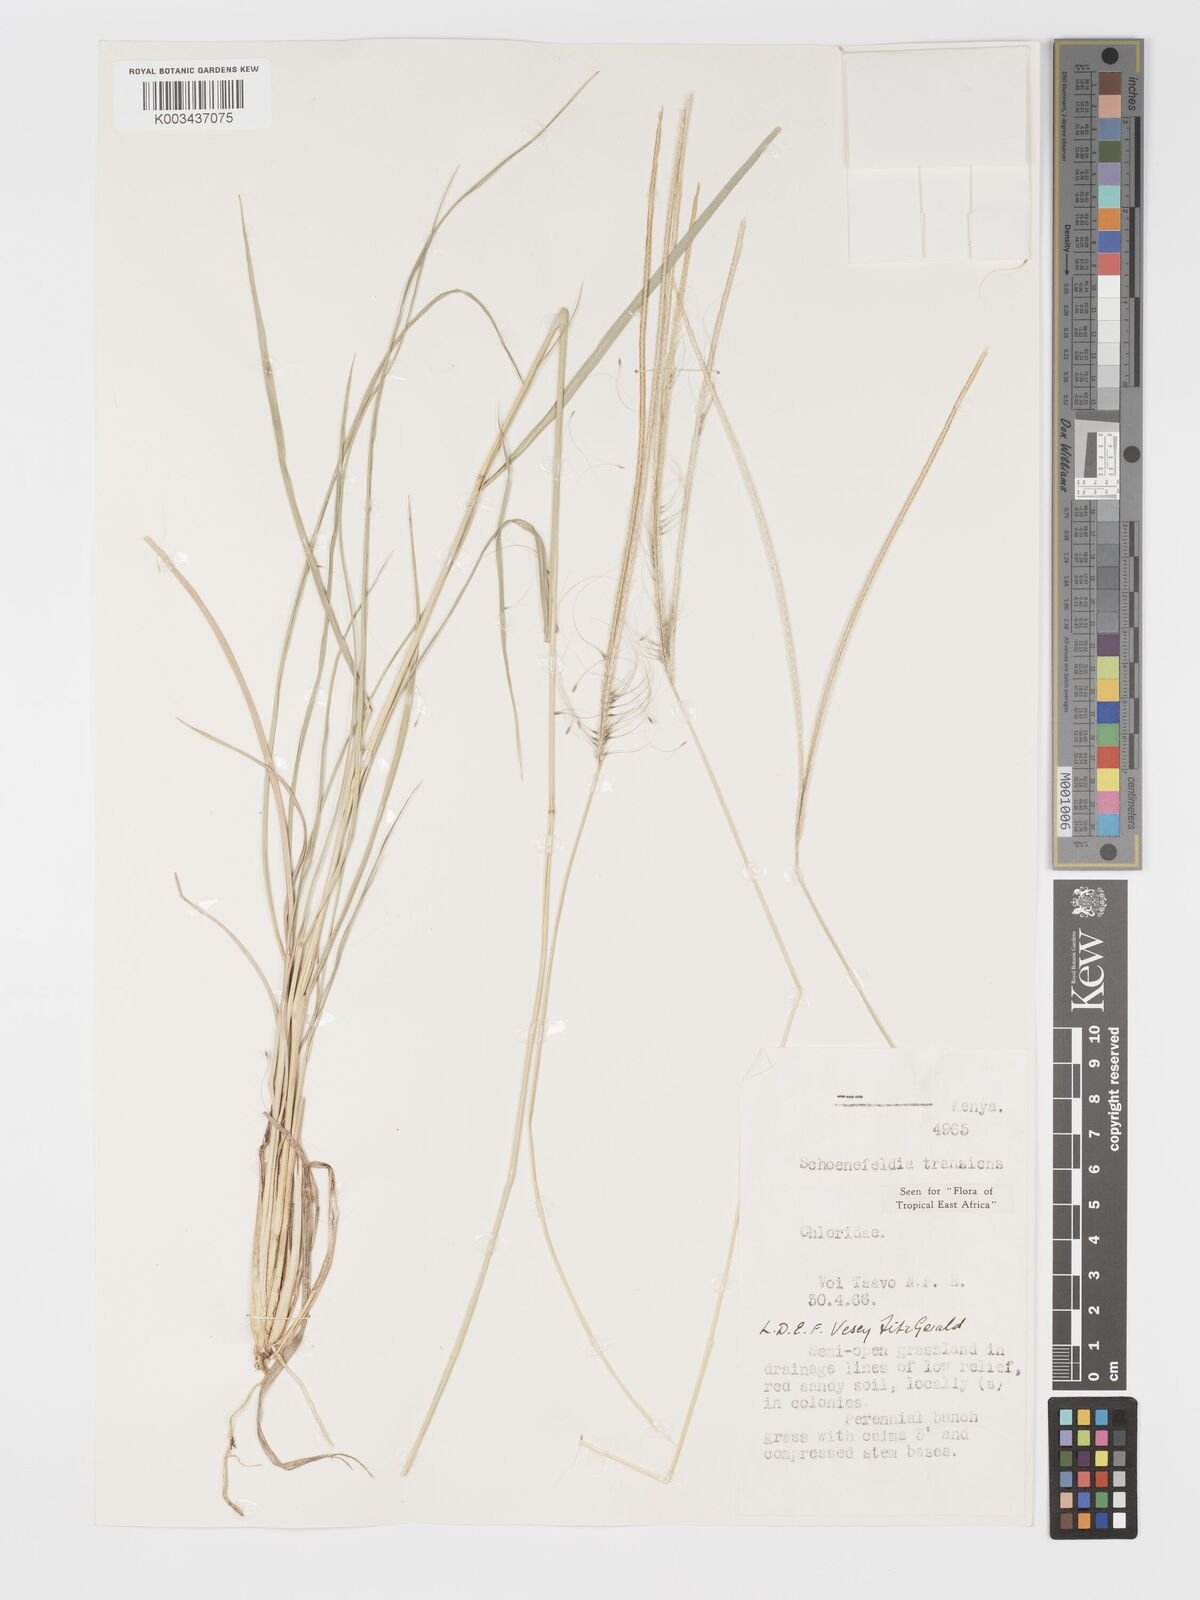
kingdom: Plantae
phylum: Tracheophyta
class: Liliopsida
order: Poales
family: Poaceae
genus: Schoenefeldia
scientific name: Schoenefeldia transiens
